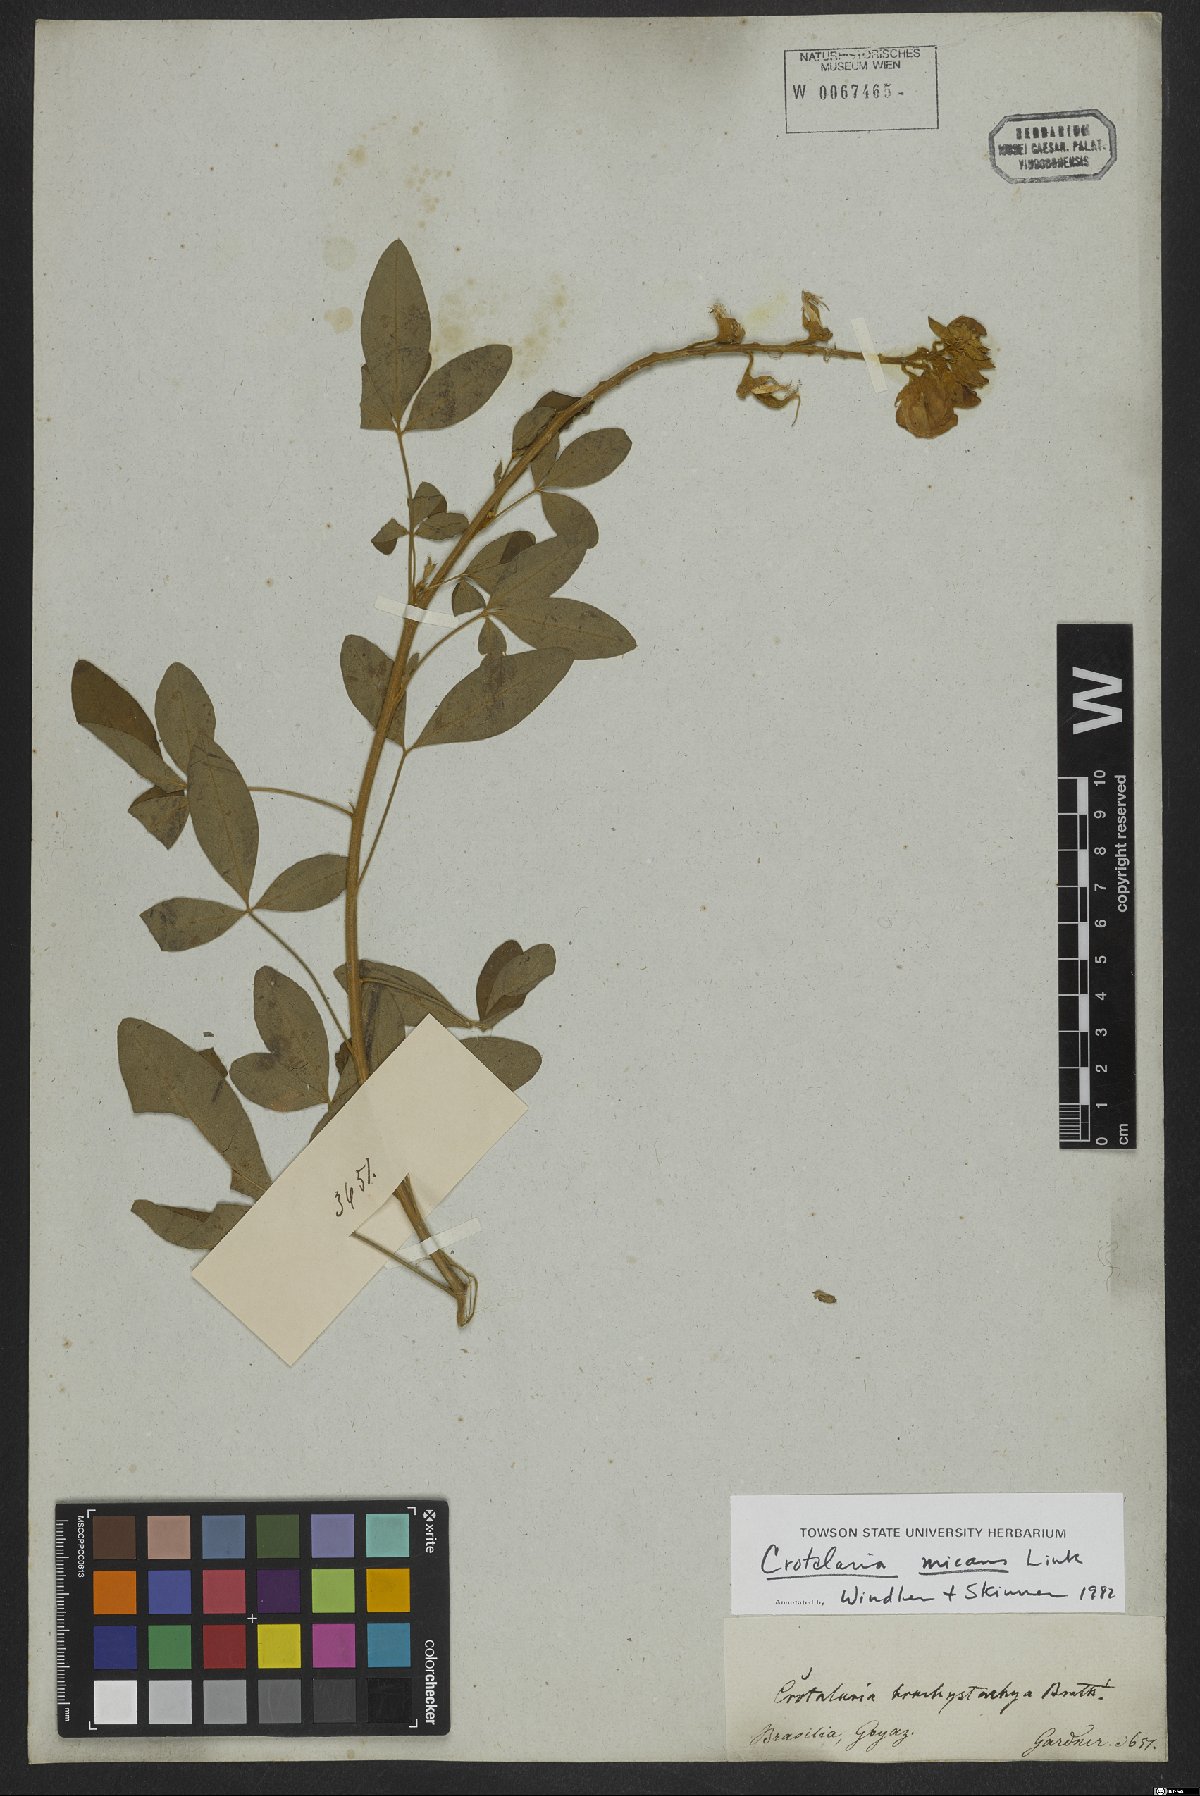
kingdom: Plantae
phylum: Tracheophyta
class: Magnoliopsida
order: Fabales
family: Fabaceae
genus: Crotalaria
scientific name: Crotalaria micans
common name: Caracas rattlebox
